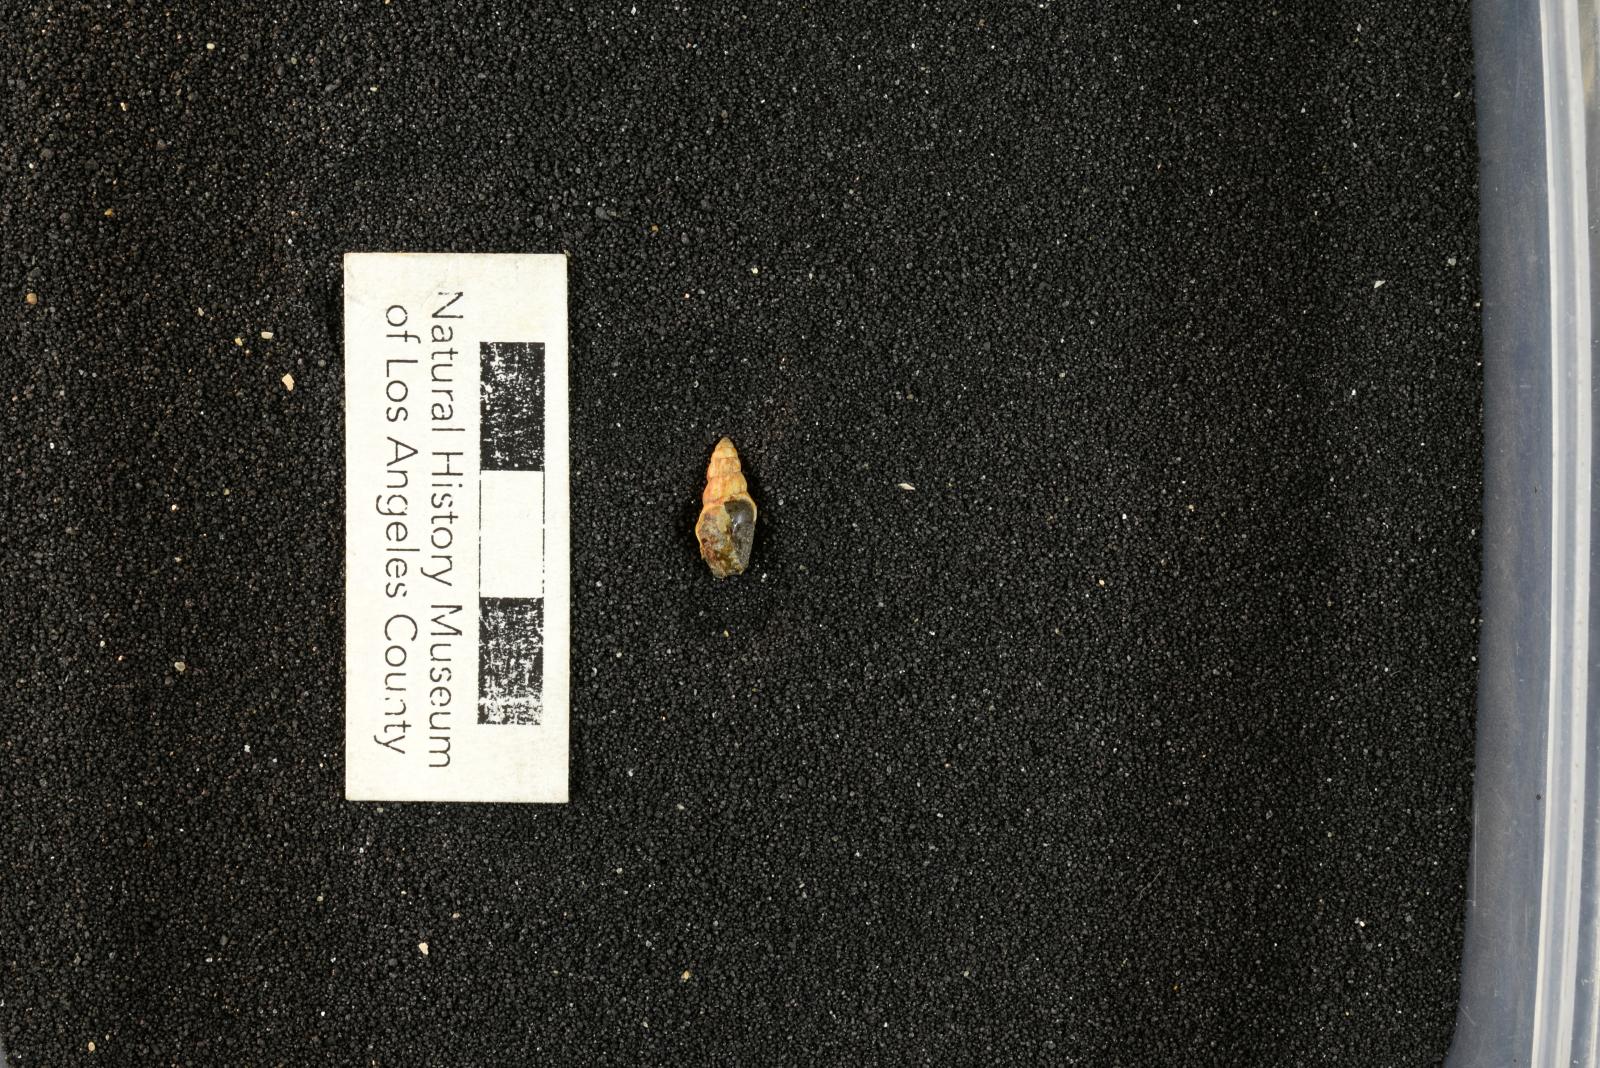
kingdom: Animalia
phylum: Mollusca
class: Gastropoda
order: Littorinimorpha
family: Aporrhaidae
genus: Latiala
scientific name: Latiala heliaca
